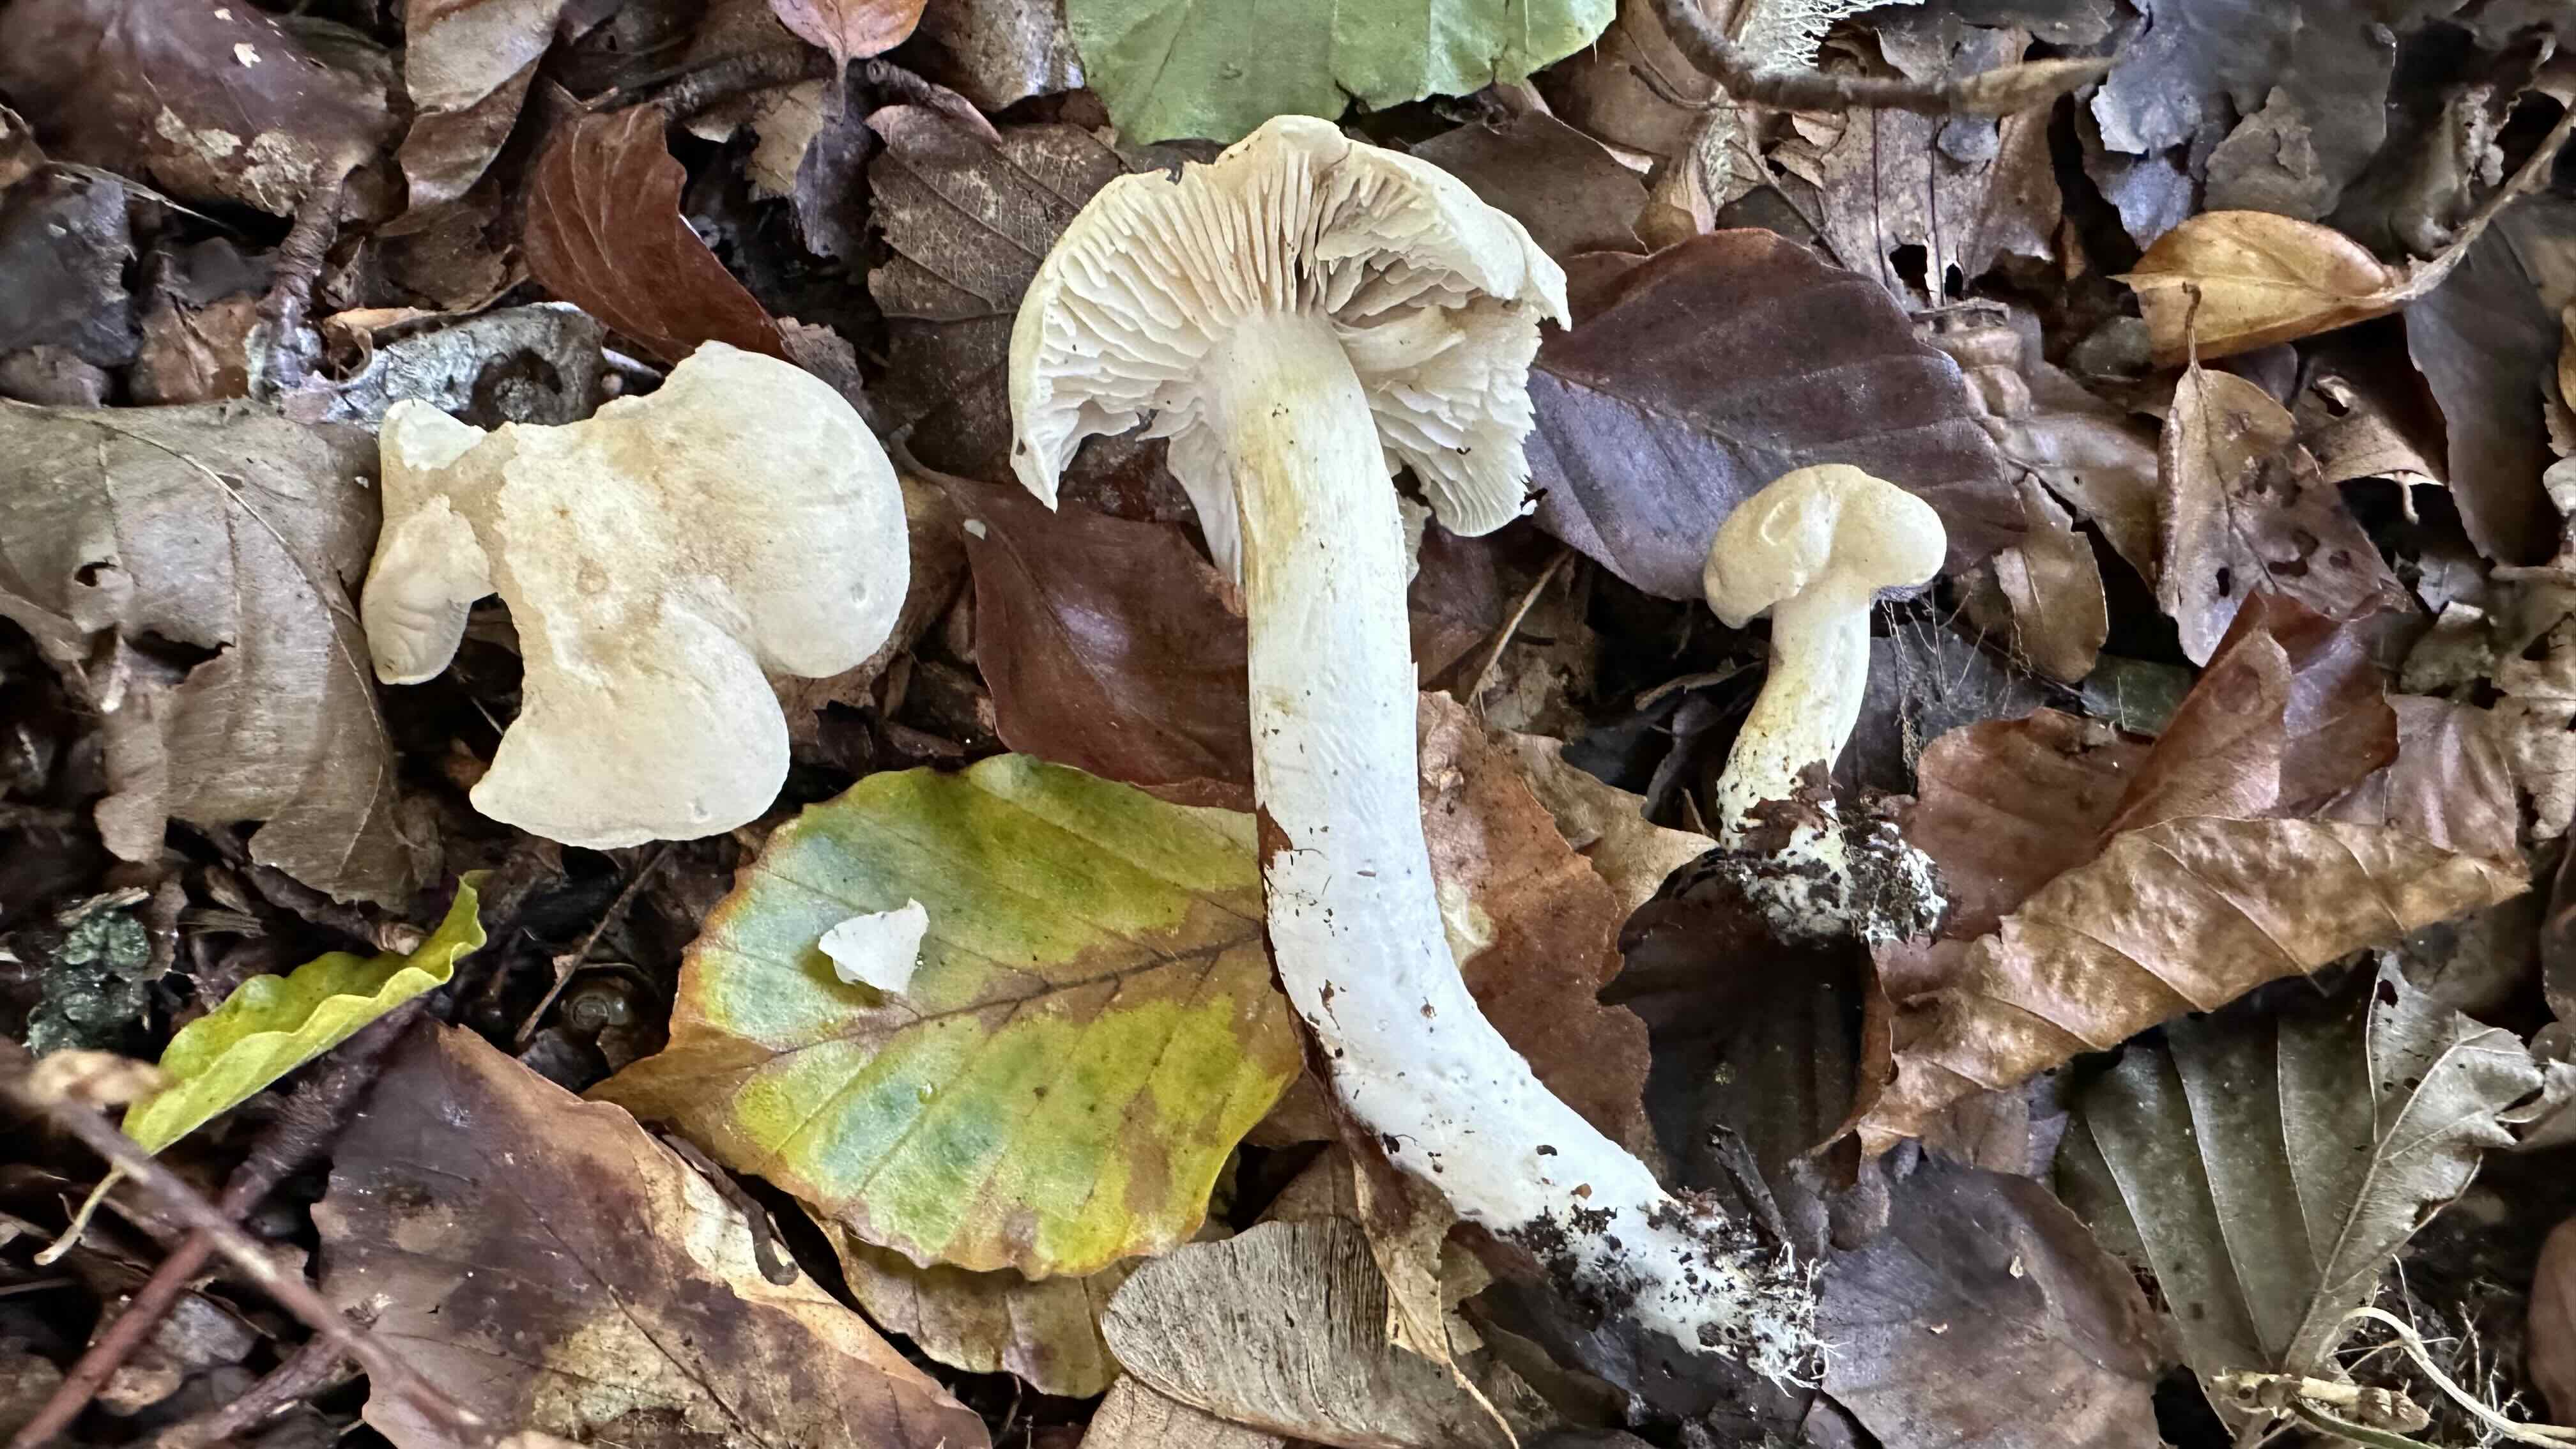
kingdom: Fungi
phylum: Basidiomycota
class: Agaricomycetes
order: Agaricales
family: Tricholomataceae
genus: Tricholoma
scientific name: Tricholoma lascivum
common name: stinkende ridderhat
